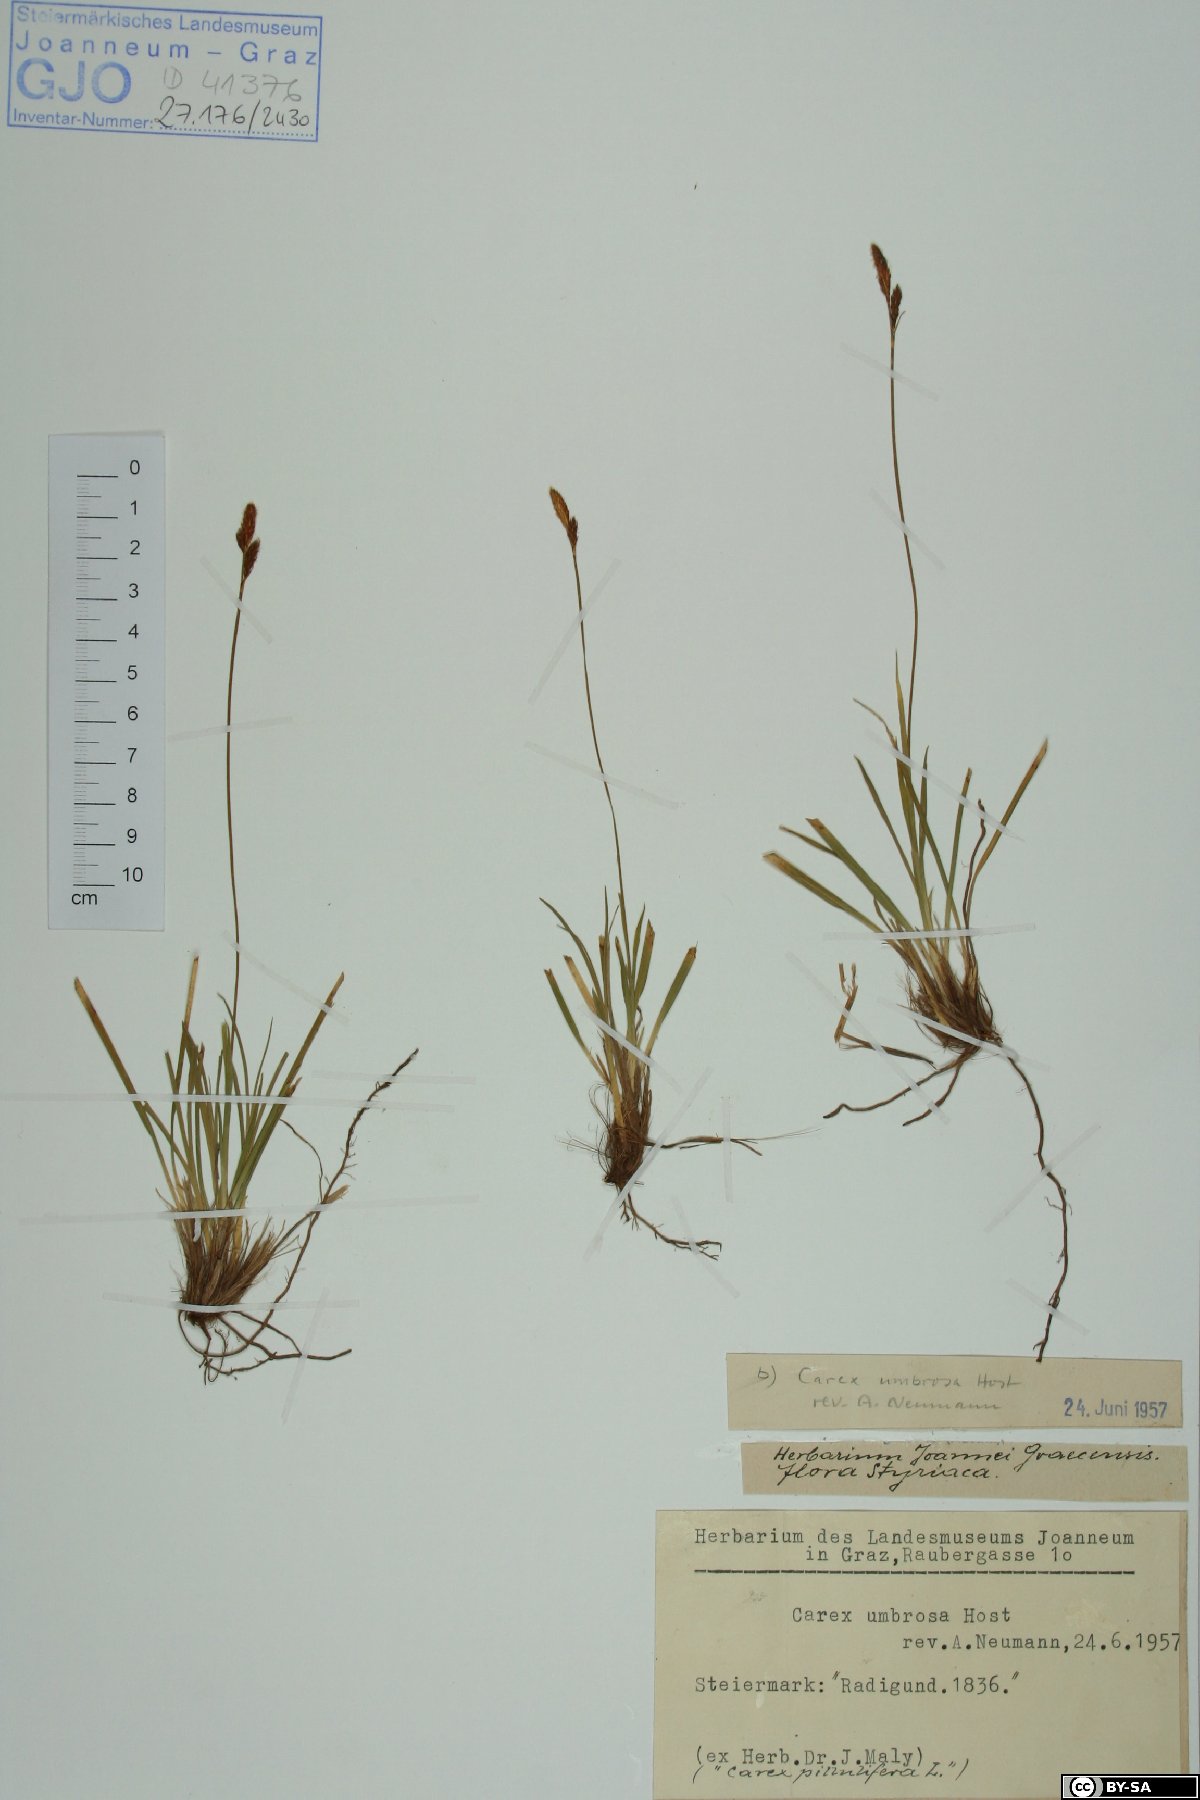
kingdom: Plantae
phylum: Tracheophyta
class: Liliopsida
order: Poales
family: Cyperaceae
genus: Carex
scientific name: Carex umbrosa
